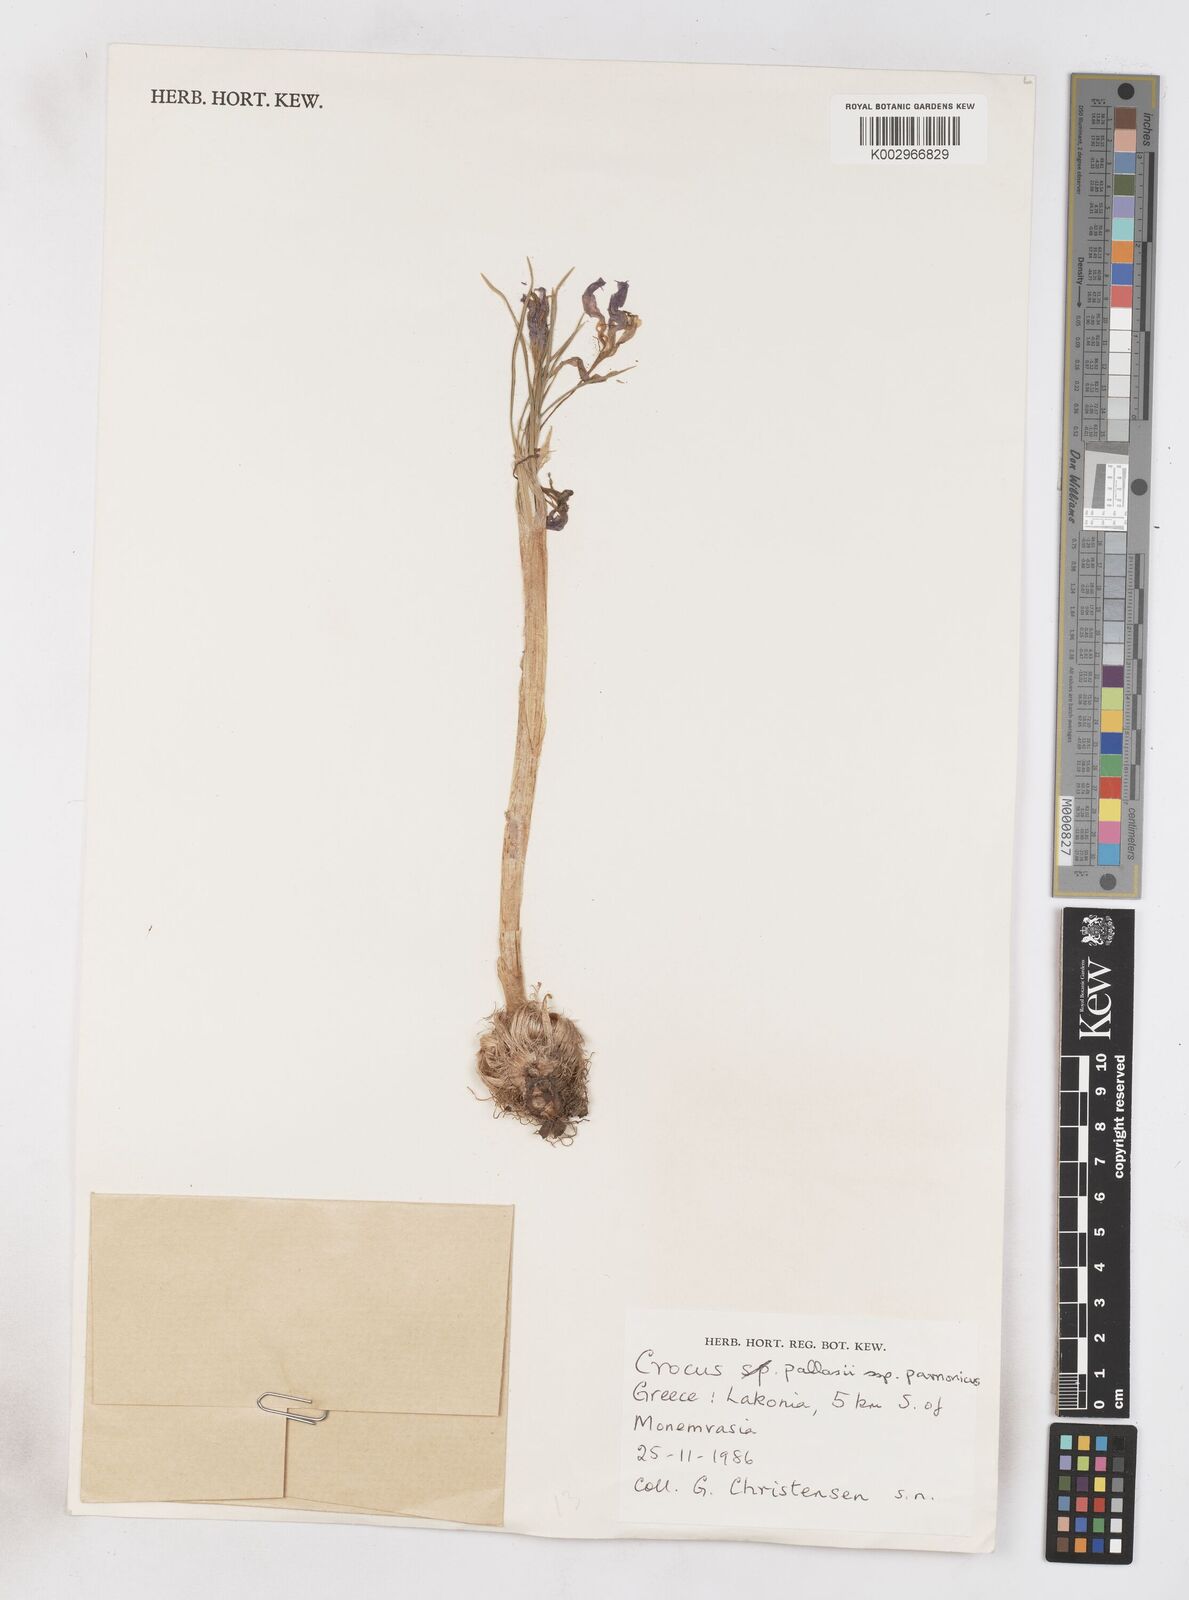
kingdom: Plantae
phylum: Tracheophyta
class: Liliopsida
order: Asparagales
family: Iridaceae
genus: Crocus
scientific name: Crocus hadriaticus
